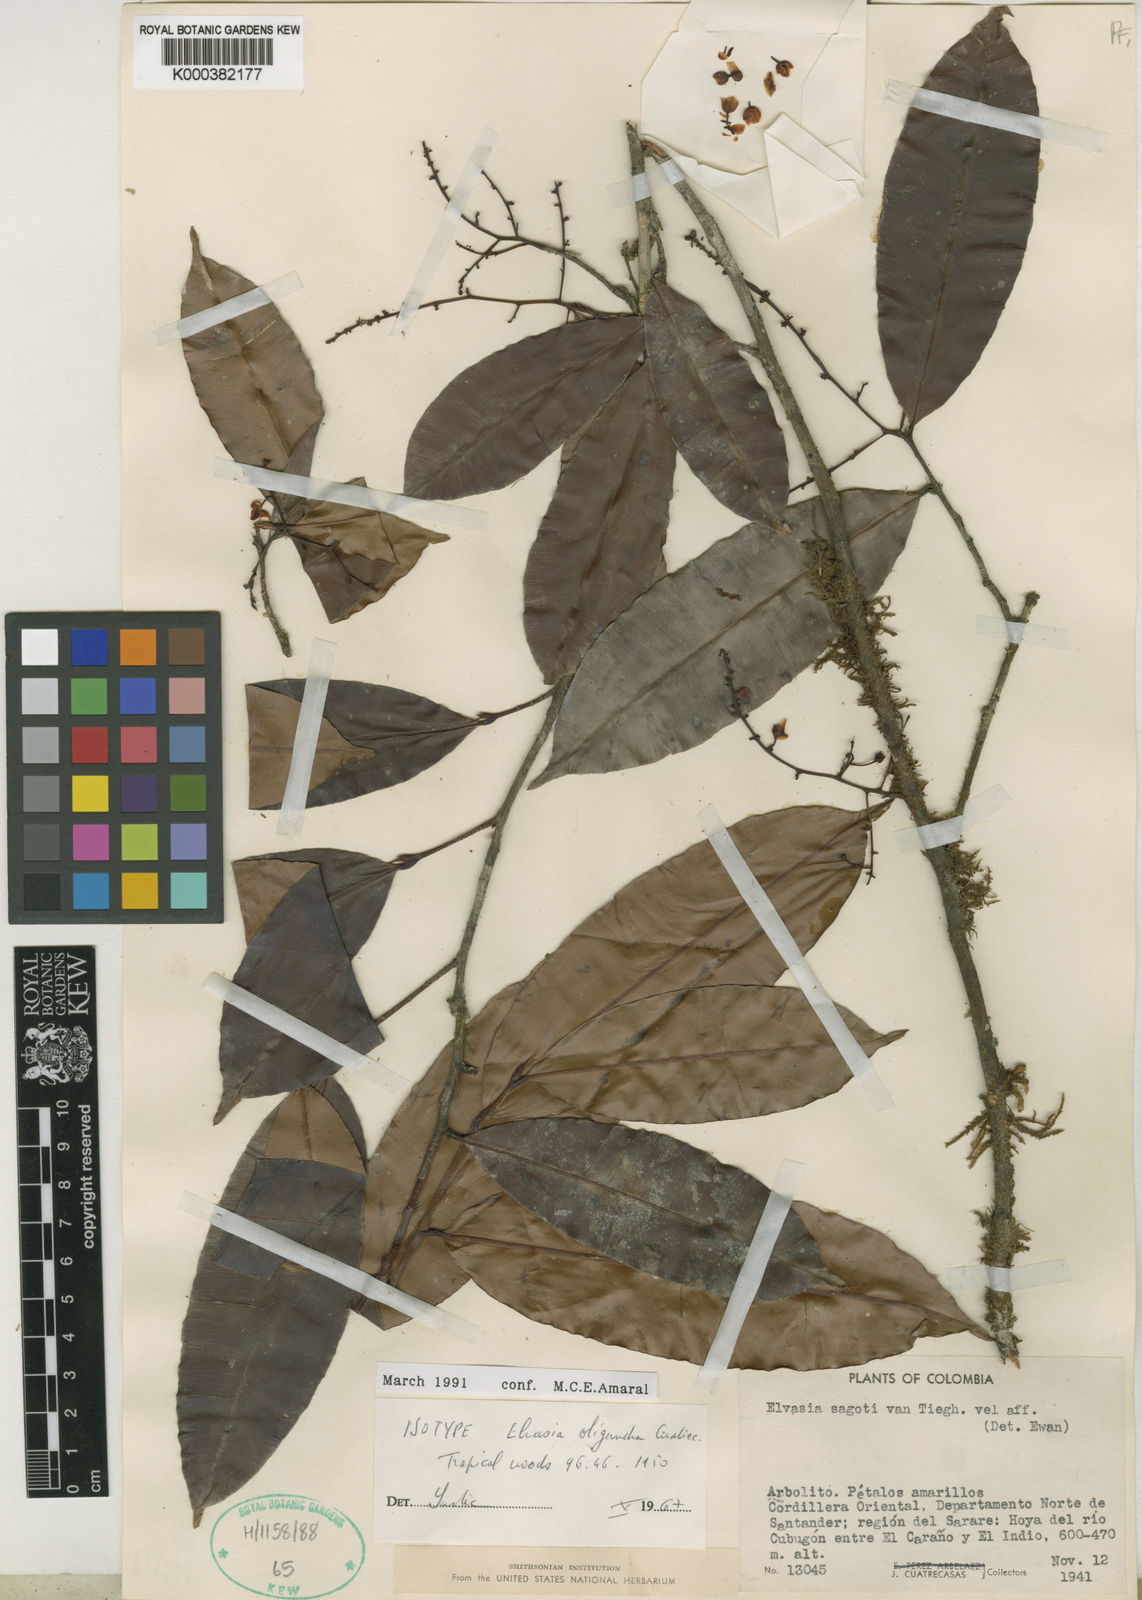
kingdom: Plantae
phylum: Tracheophyta
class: Magnoliopsida
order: Malpighiales
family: Ochnaceae
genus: Elvasia
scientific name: Elvasia oligandra
